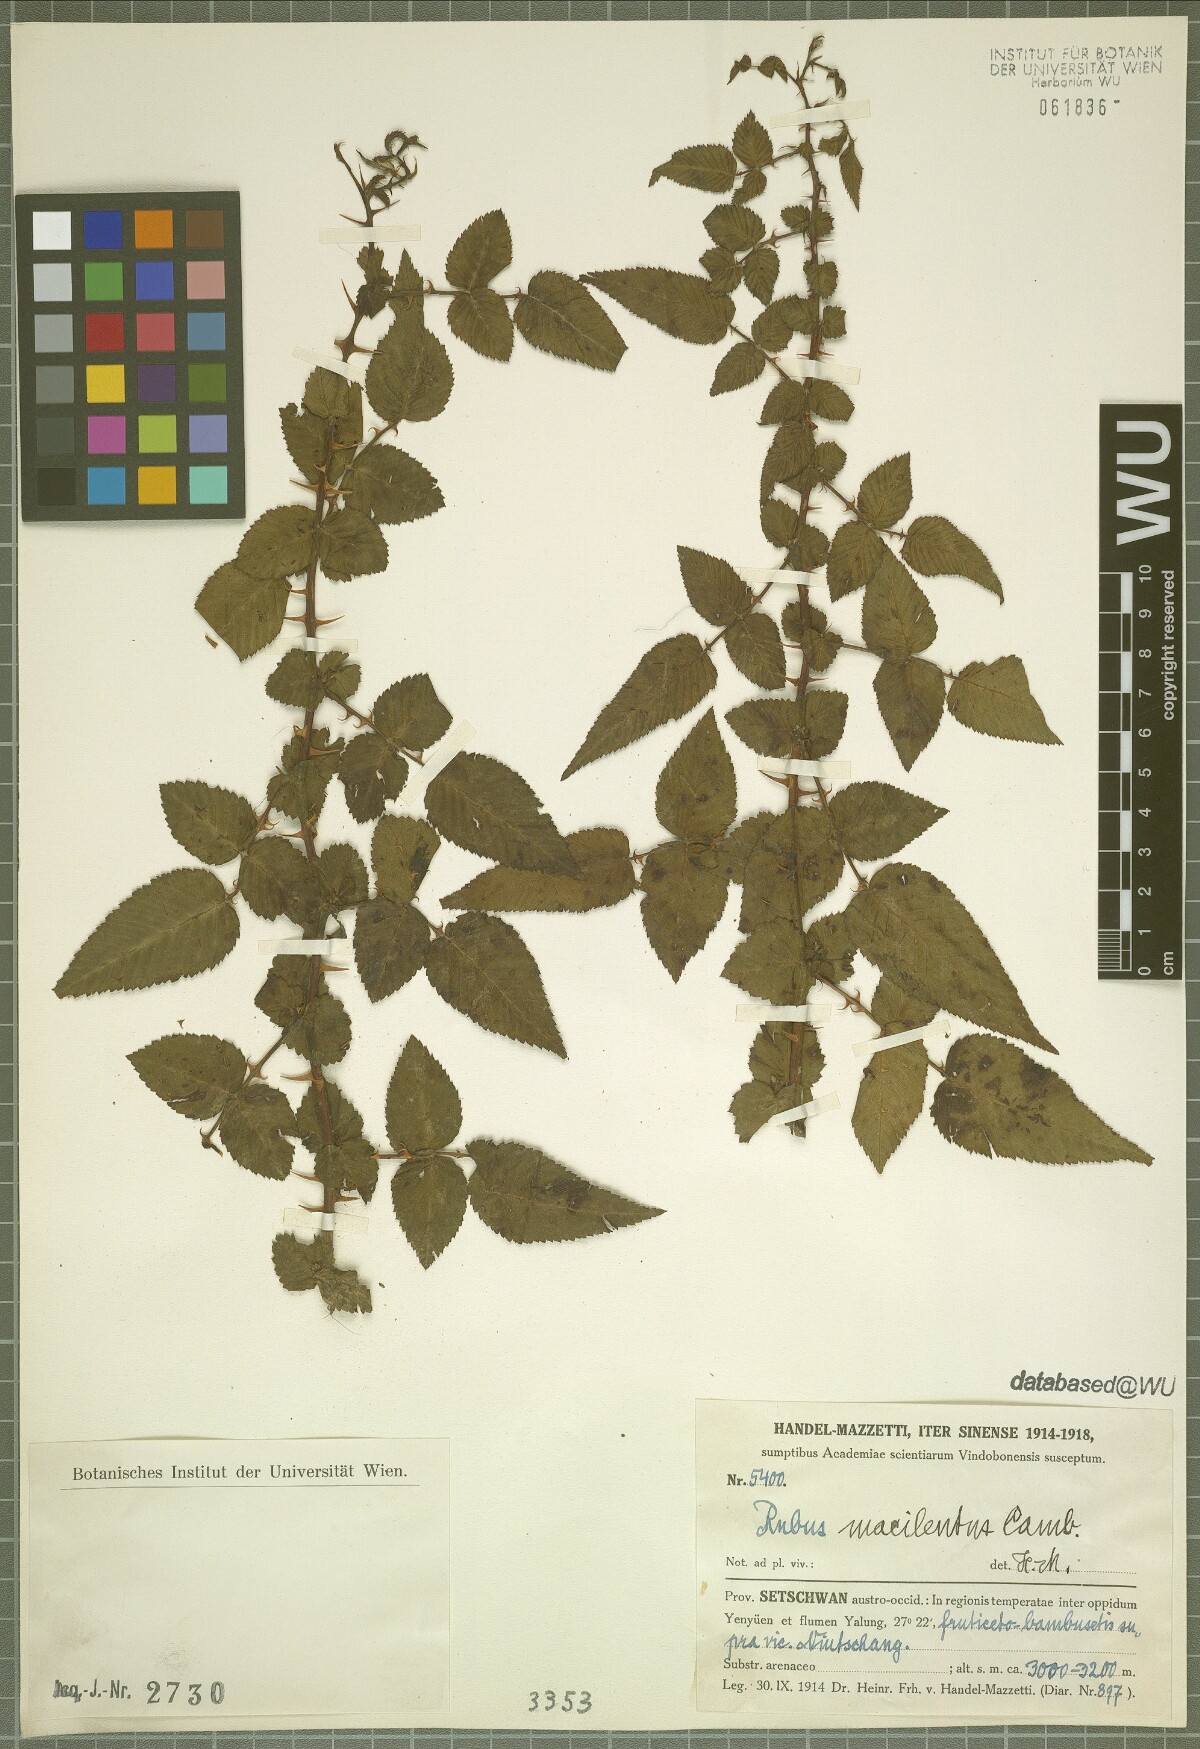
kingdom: Plantae
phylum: Tracheophyta
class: Magnoliopsida
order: Rosales
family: Rosaceae
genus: Rubus
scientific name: Rubus macilentus
